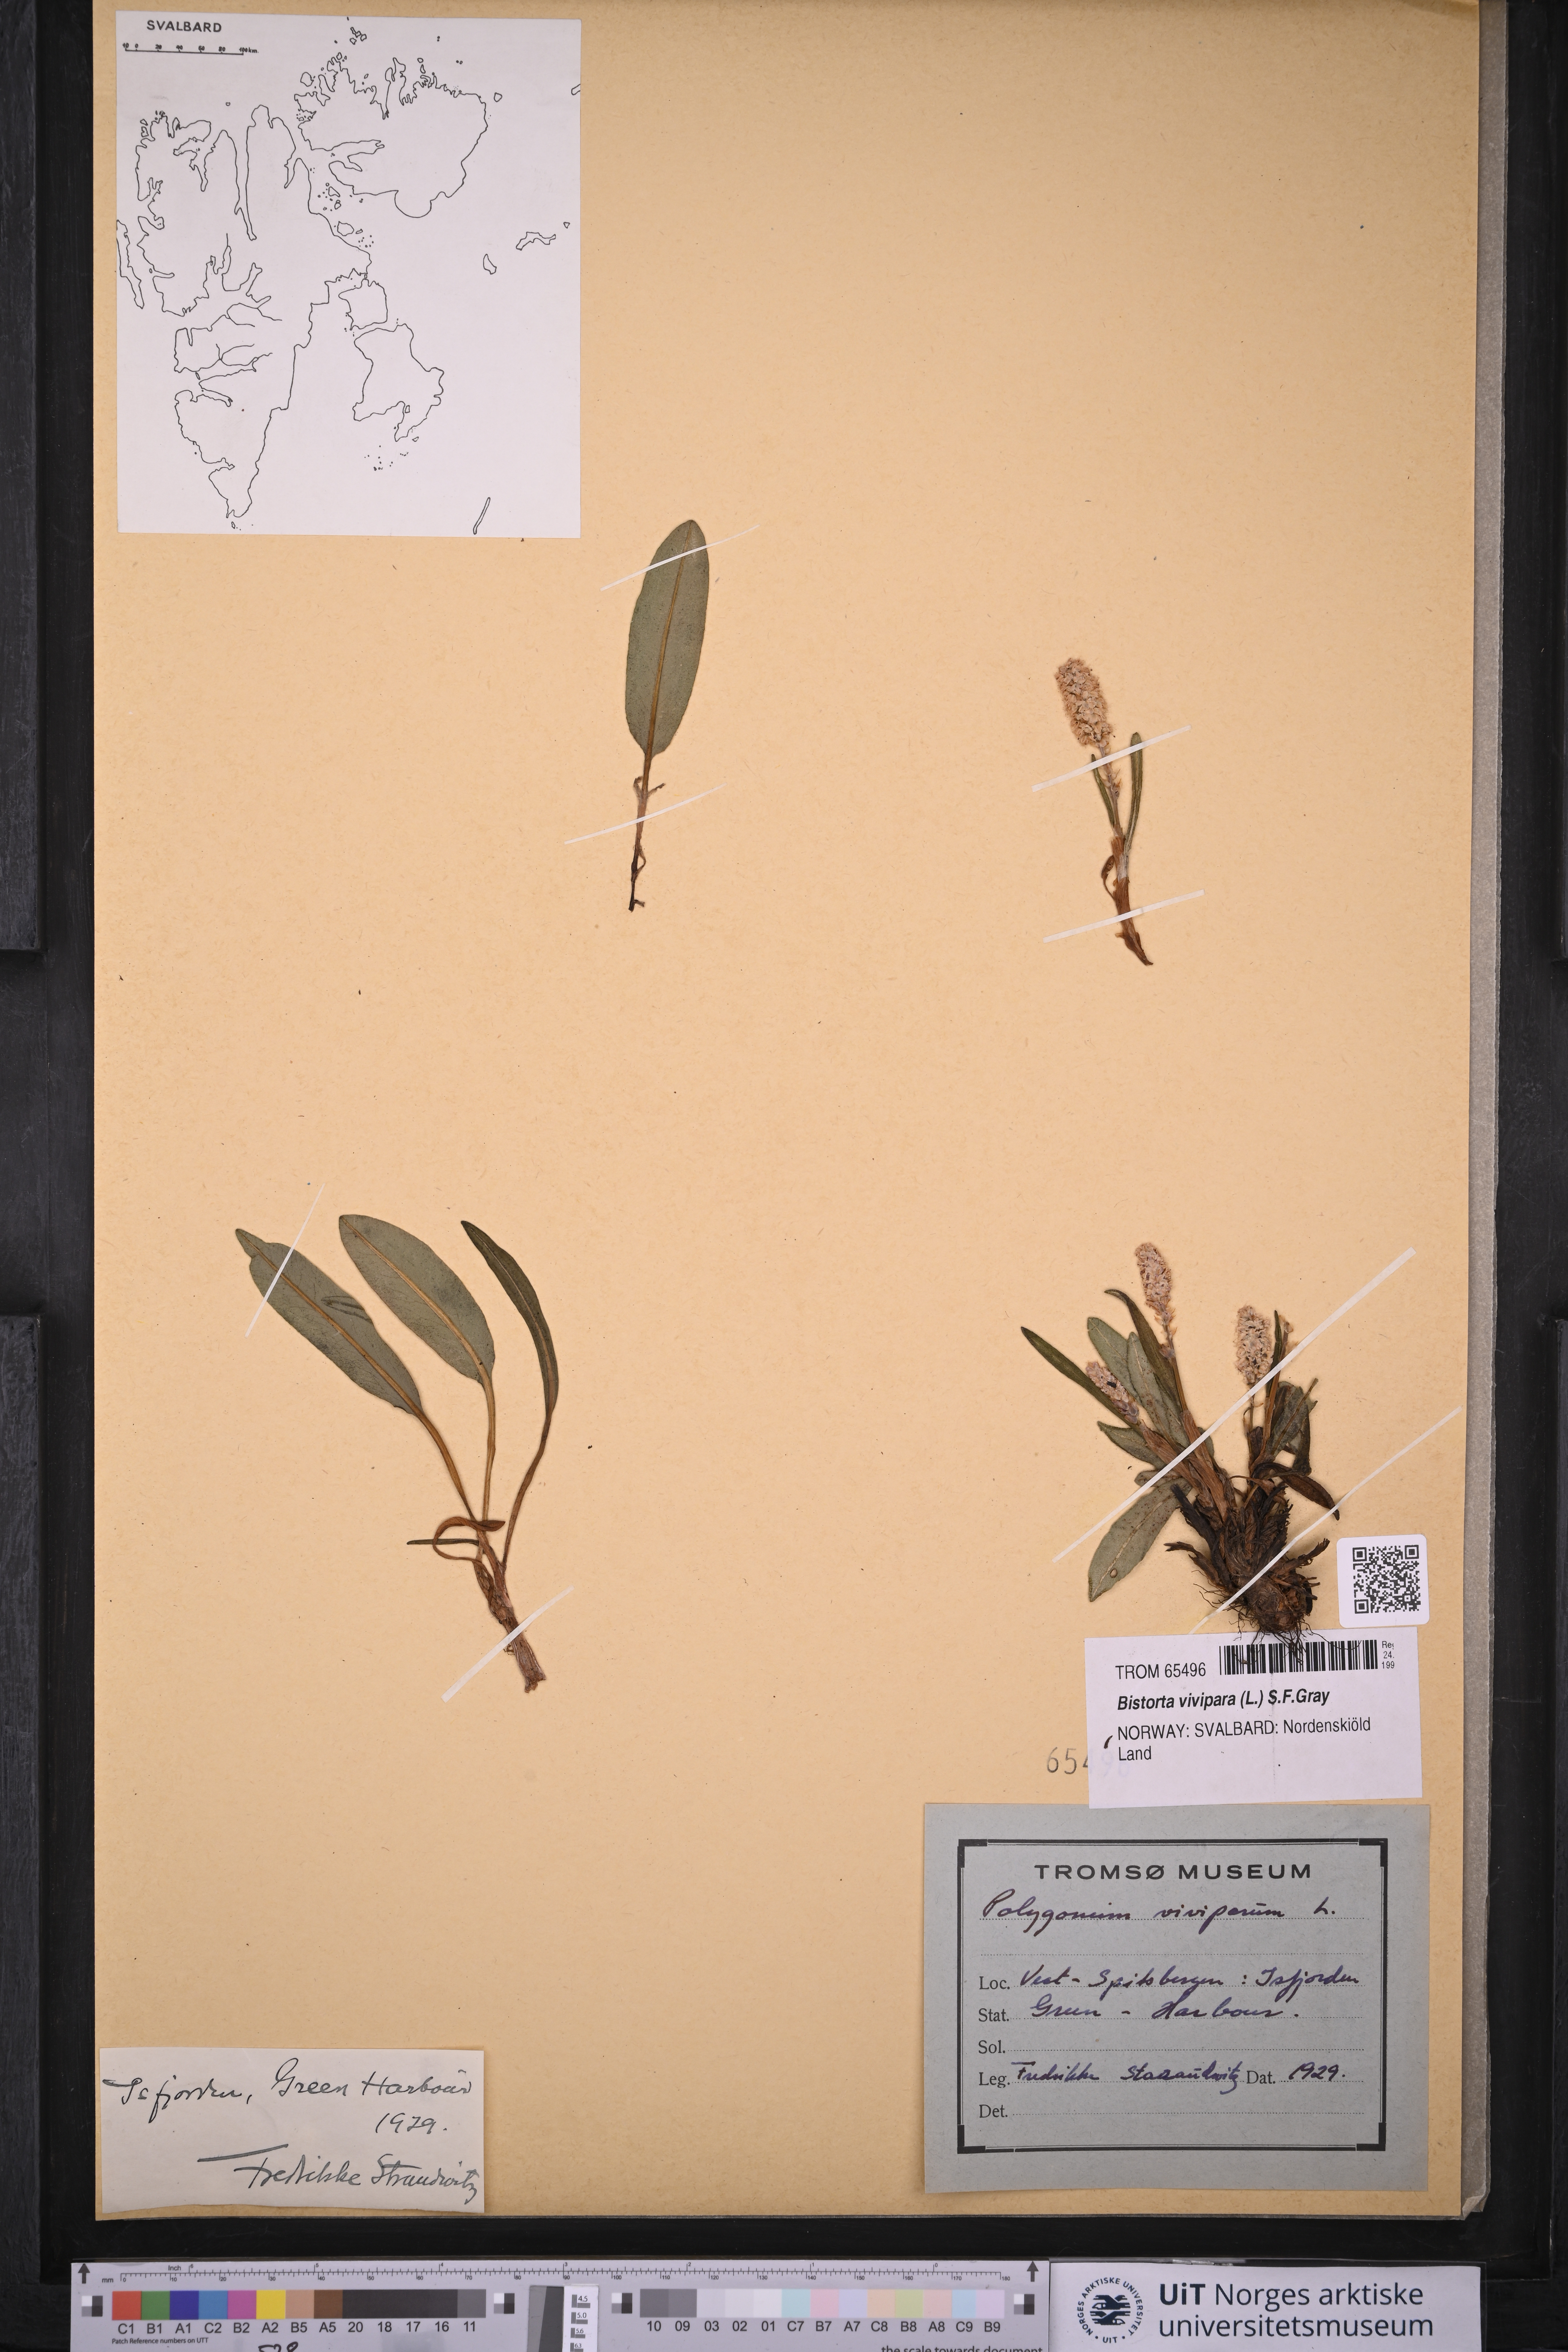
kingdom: Plantae
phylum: Tracheophyta
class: Magnoliopsida
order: Caryophyllales
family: Polygonaceae
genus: Bistorta
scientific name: Bistorta vivipara
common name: Alpine bistort
